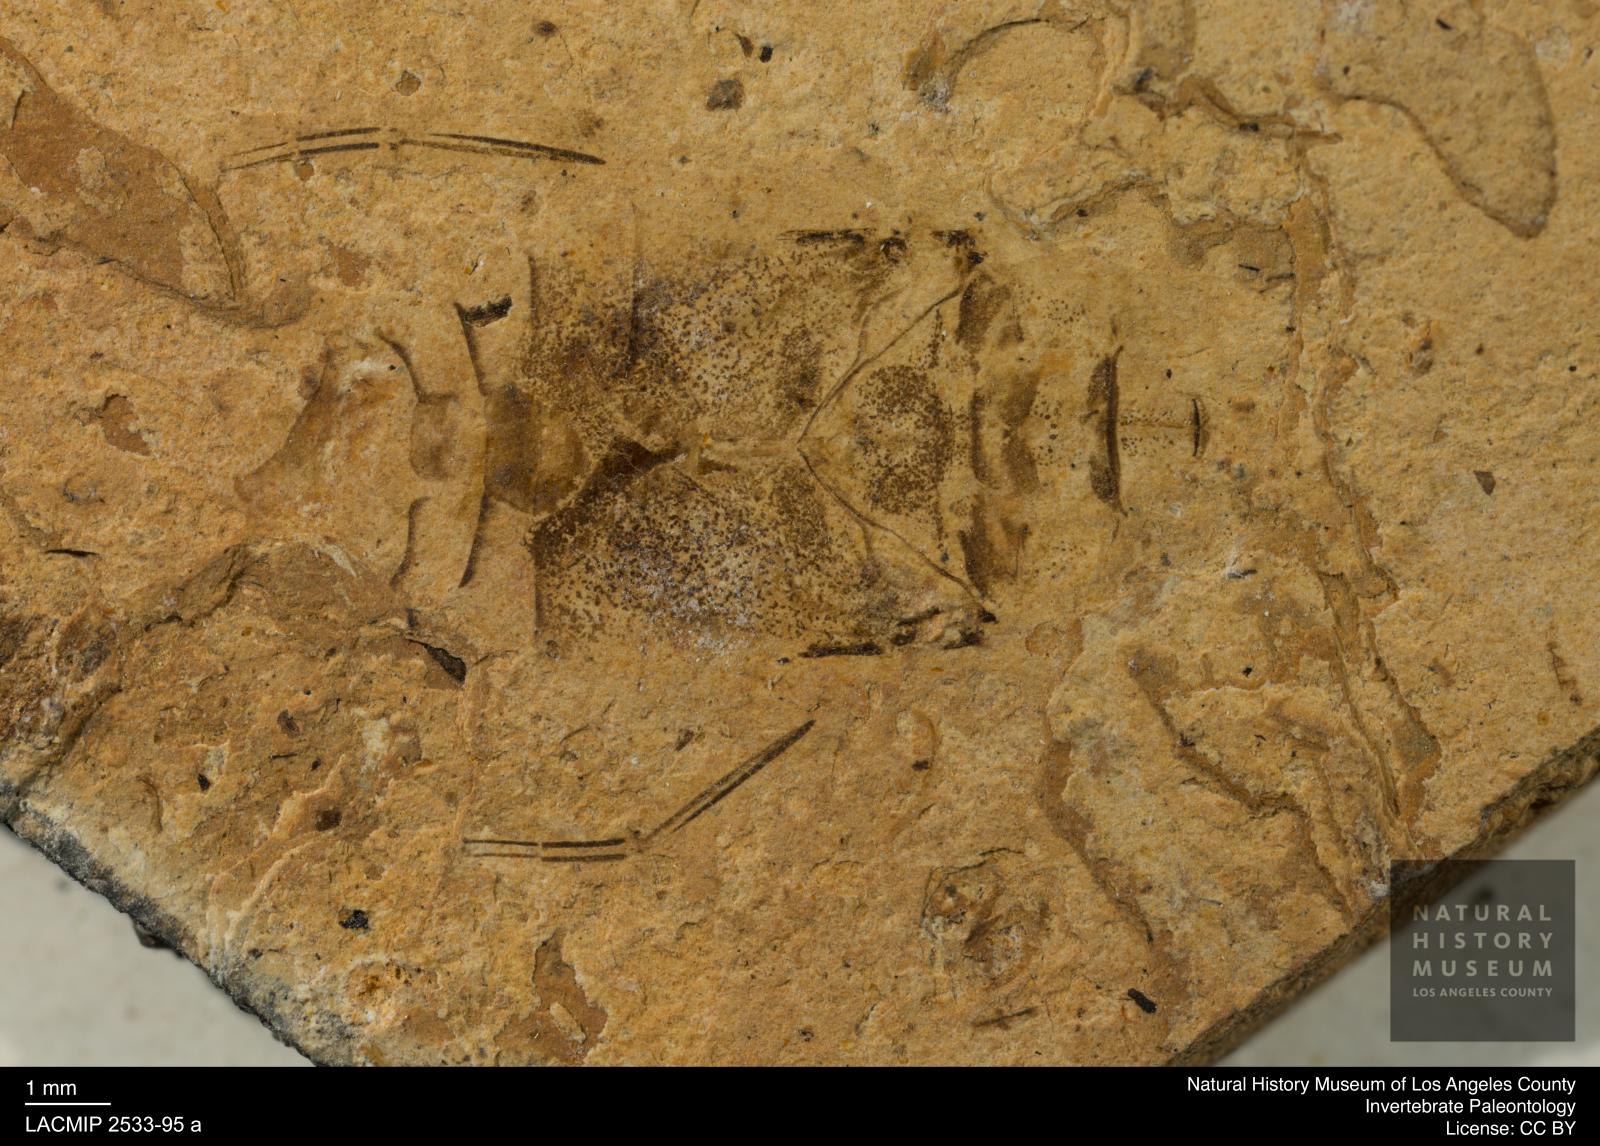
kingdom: Animalia
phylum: Arthropoda
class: Insecta
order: Hemiptera
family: Naucoridae
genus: Naucoris
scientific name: Naucoris rottensis
